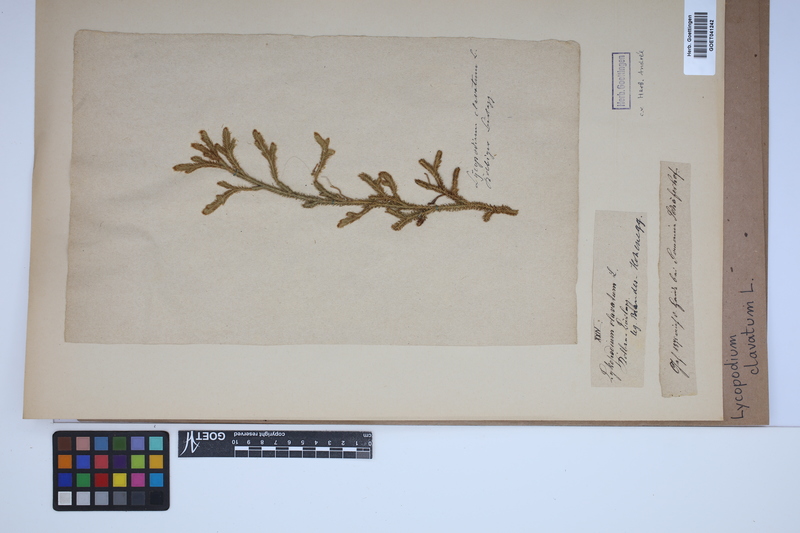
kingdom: Plantae
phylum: Tracheophyta
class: Lycopodiopsida
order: Lycopodiales
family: Lycopodiaceae
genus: Lycopodium
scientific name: Lycopodium clavatum
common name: Stag's-horn clubmoss
